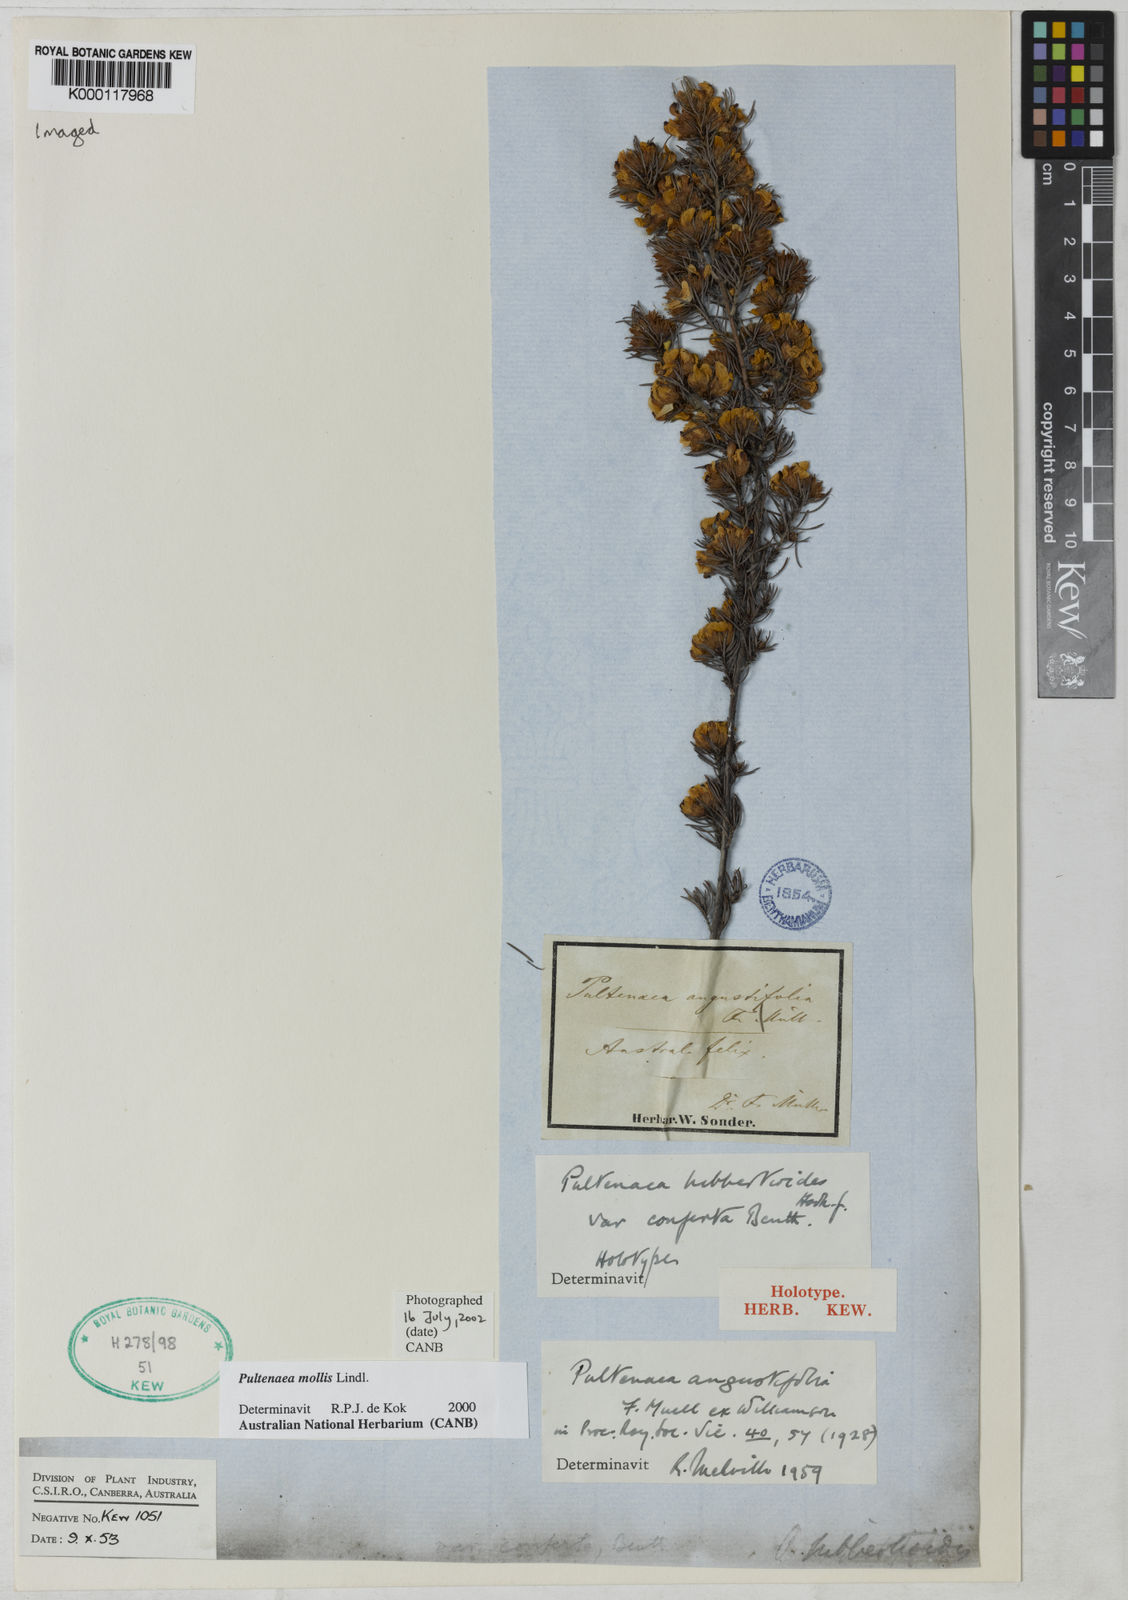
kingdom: Plantae
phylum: Tracheophyta
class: Magnoliopsida
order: Fabales
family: Fabaceae
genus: Pultenaea
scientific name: Pultenaea mollis
